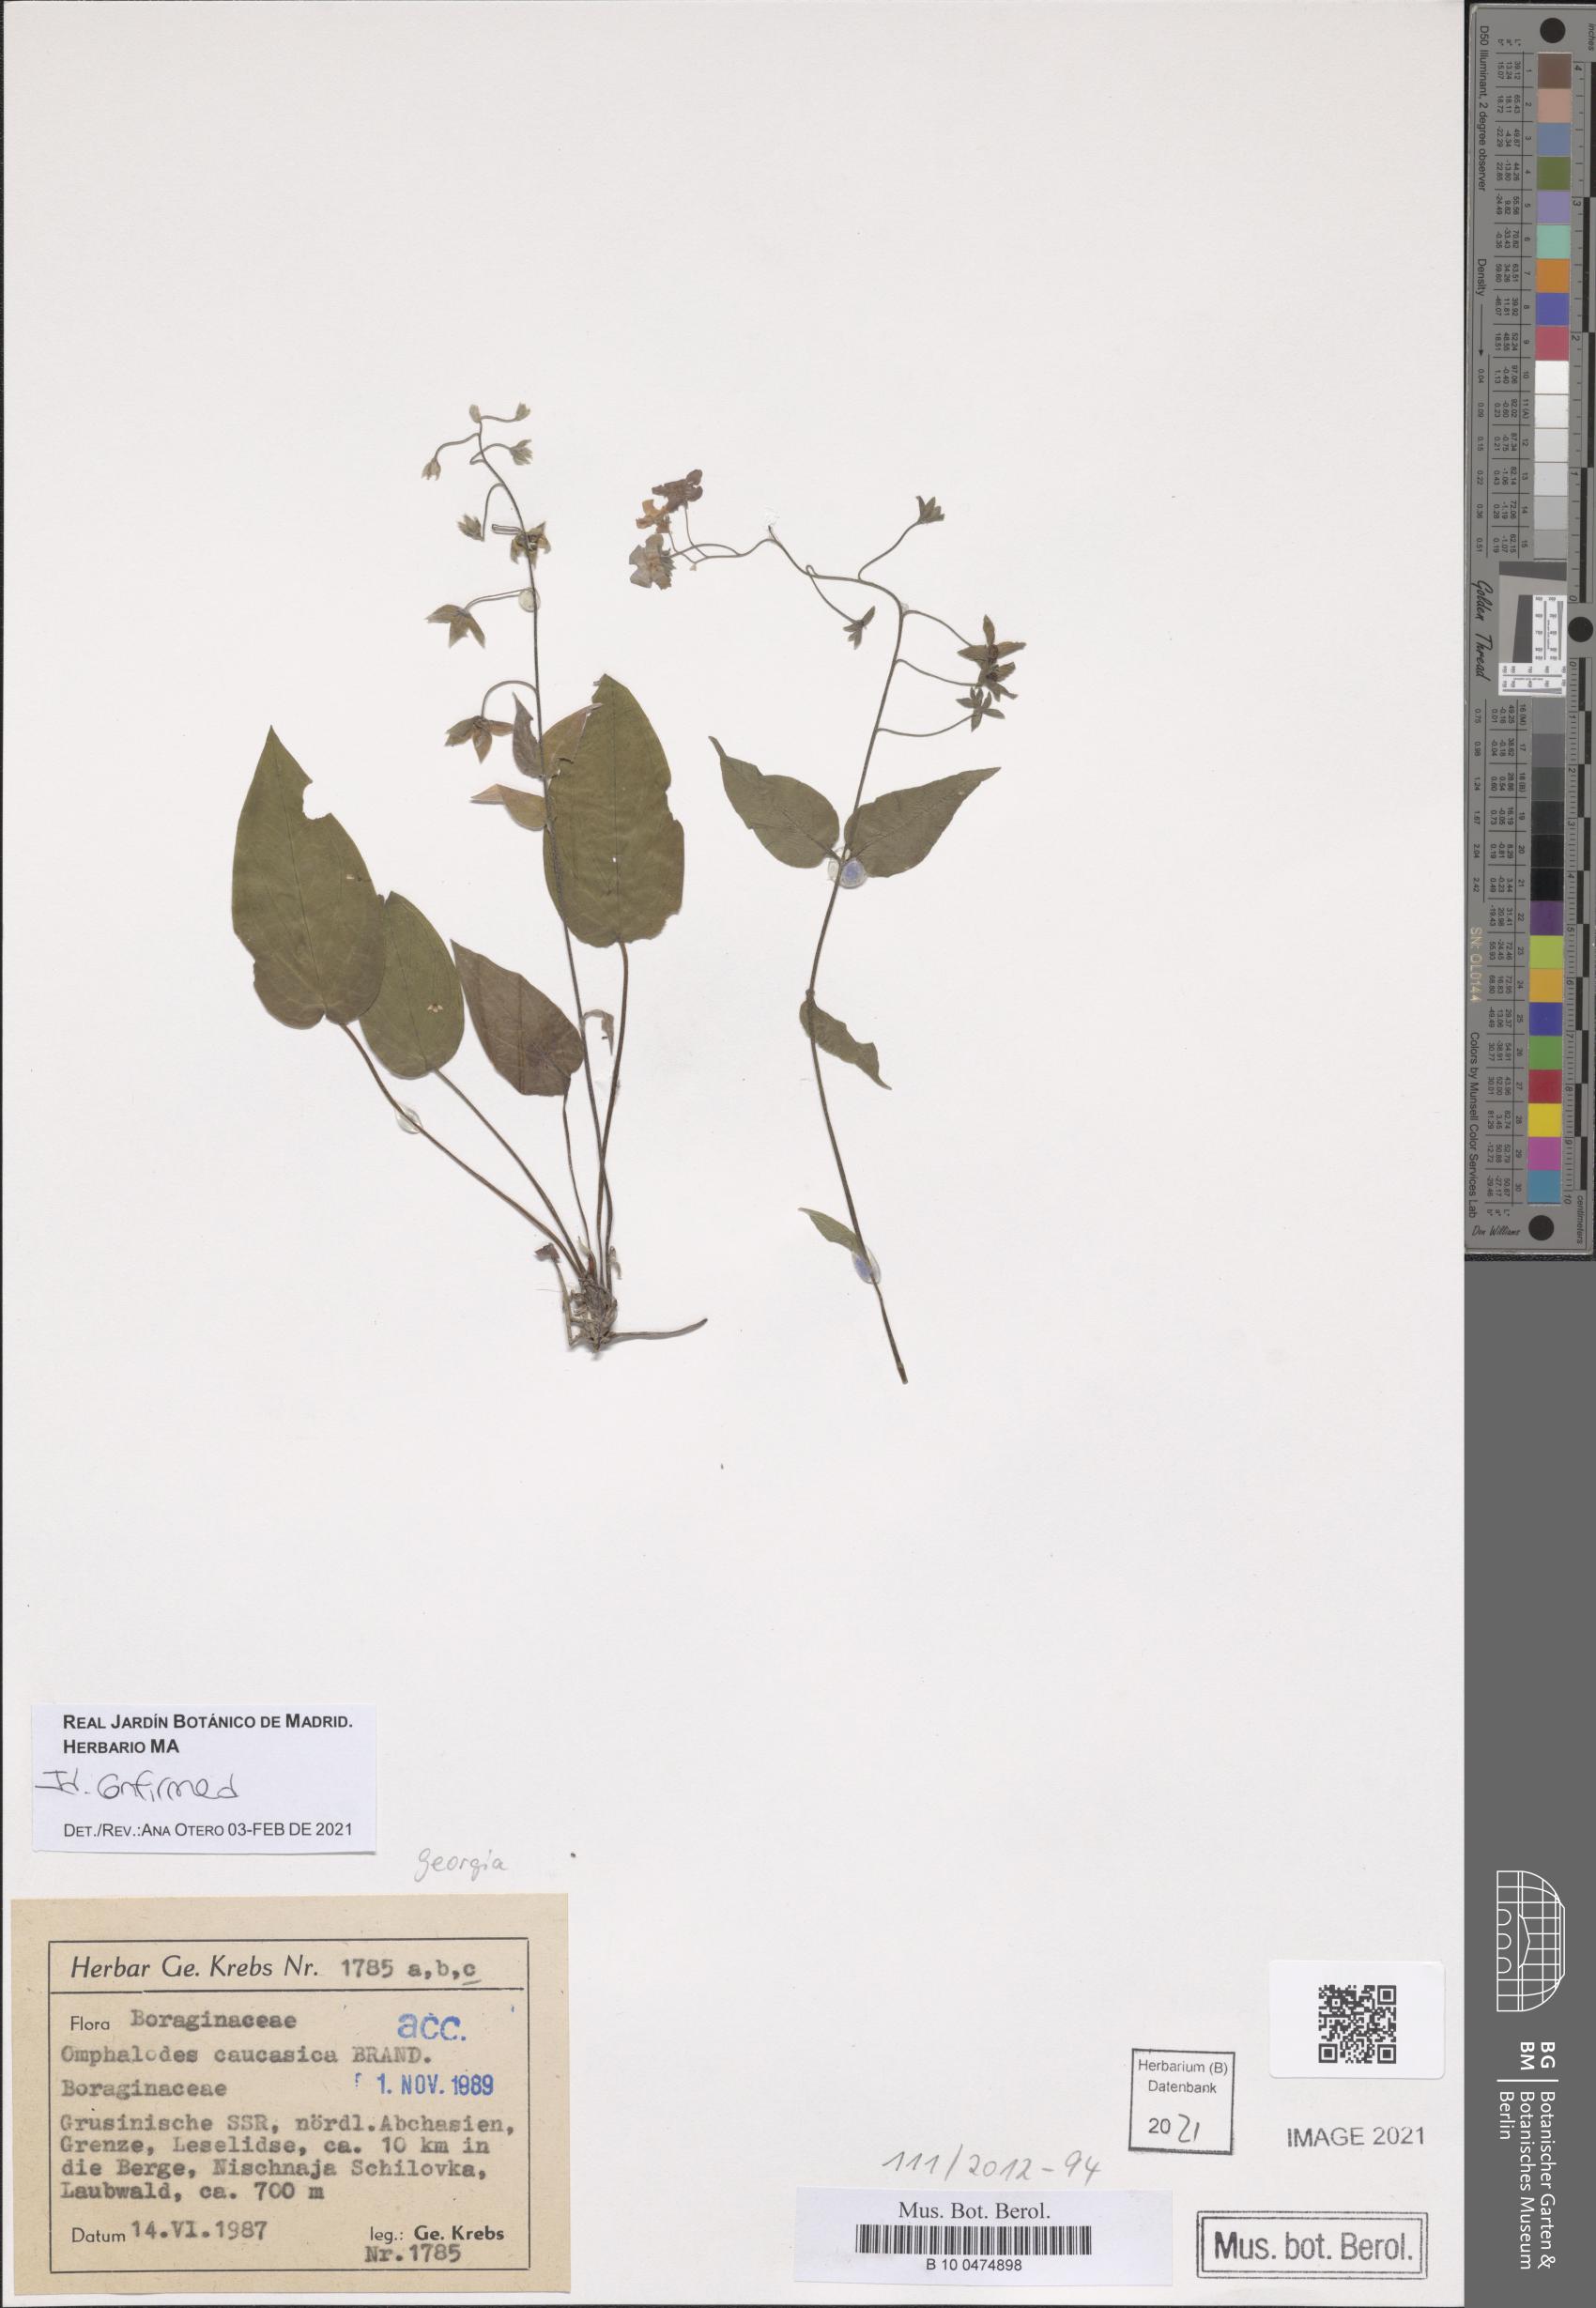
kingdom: Plantae
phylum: Tracheophyta
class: Magnoliopsida
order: Boraginales
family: Boraginaceae
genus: Omphalodes
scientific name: Omphalodes cappadocica
